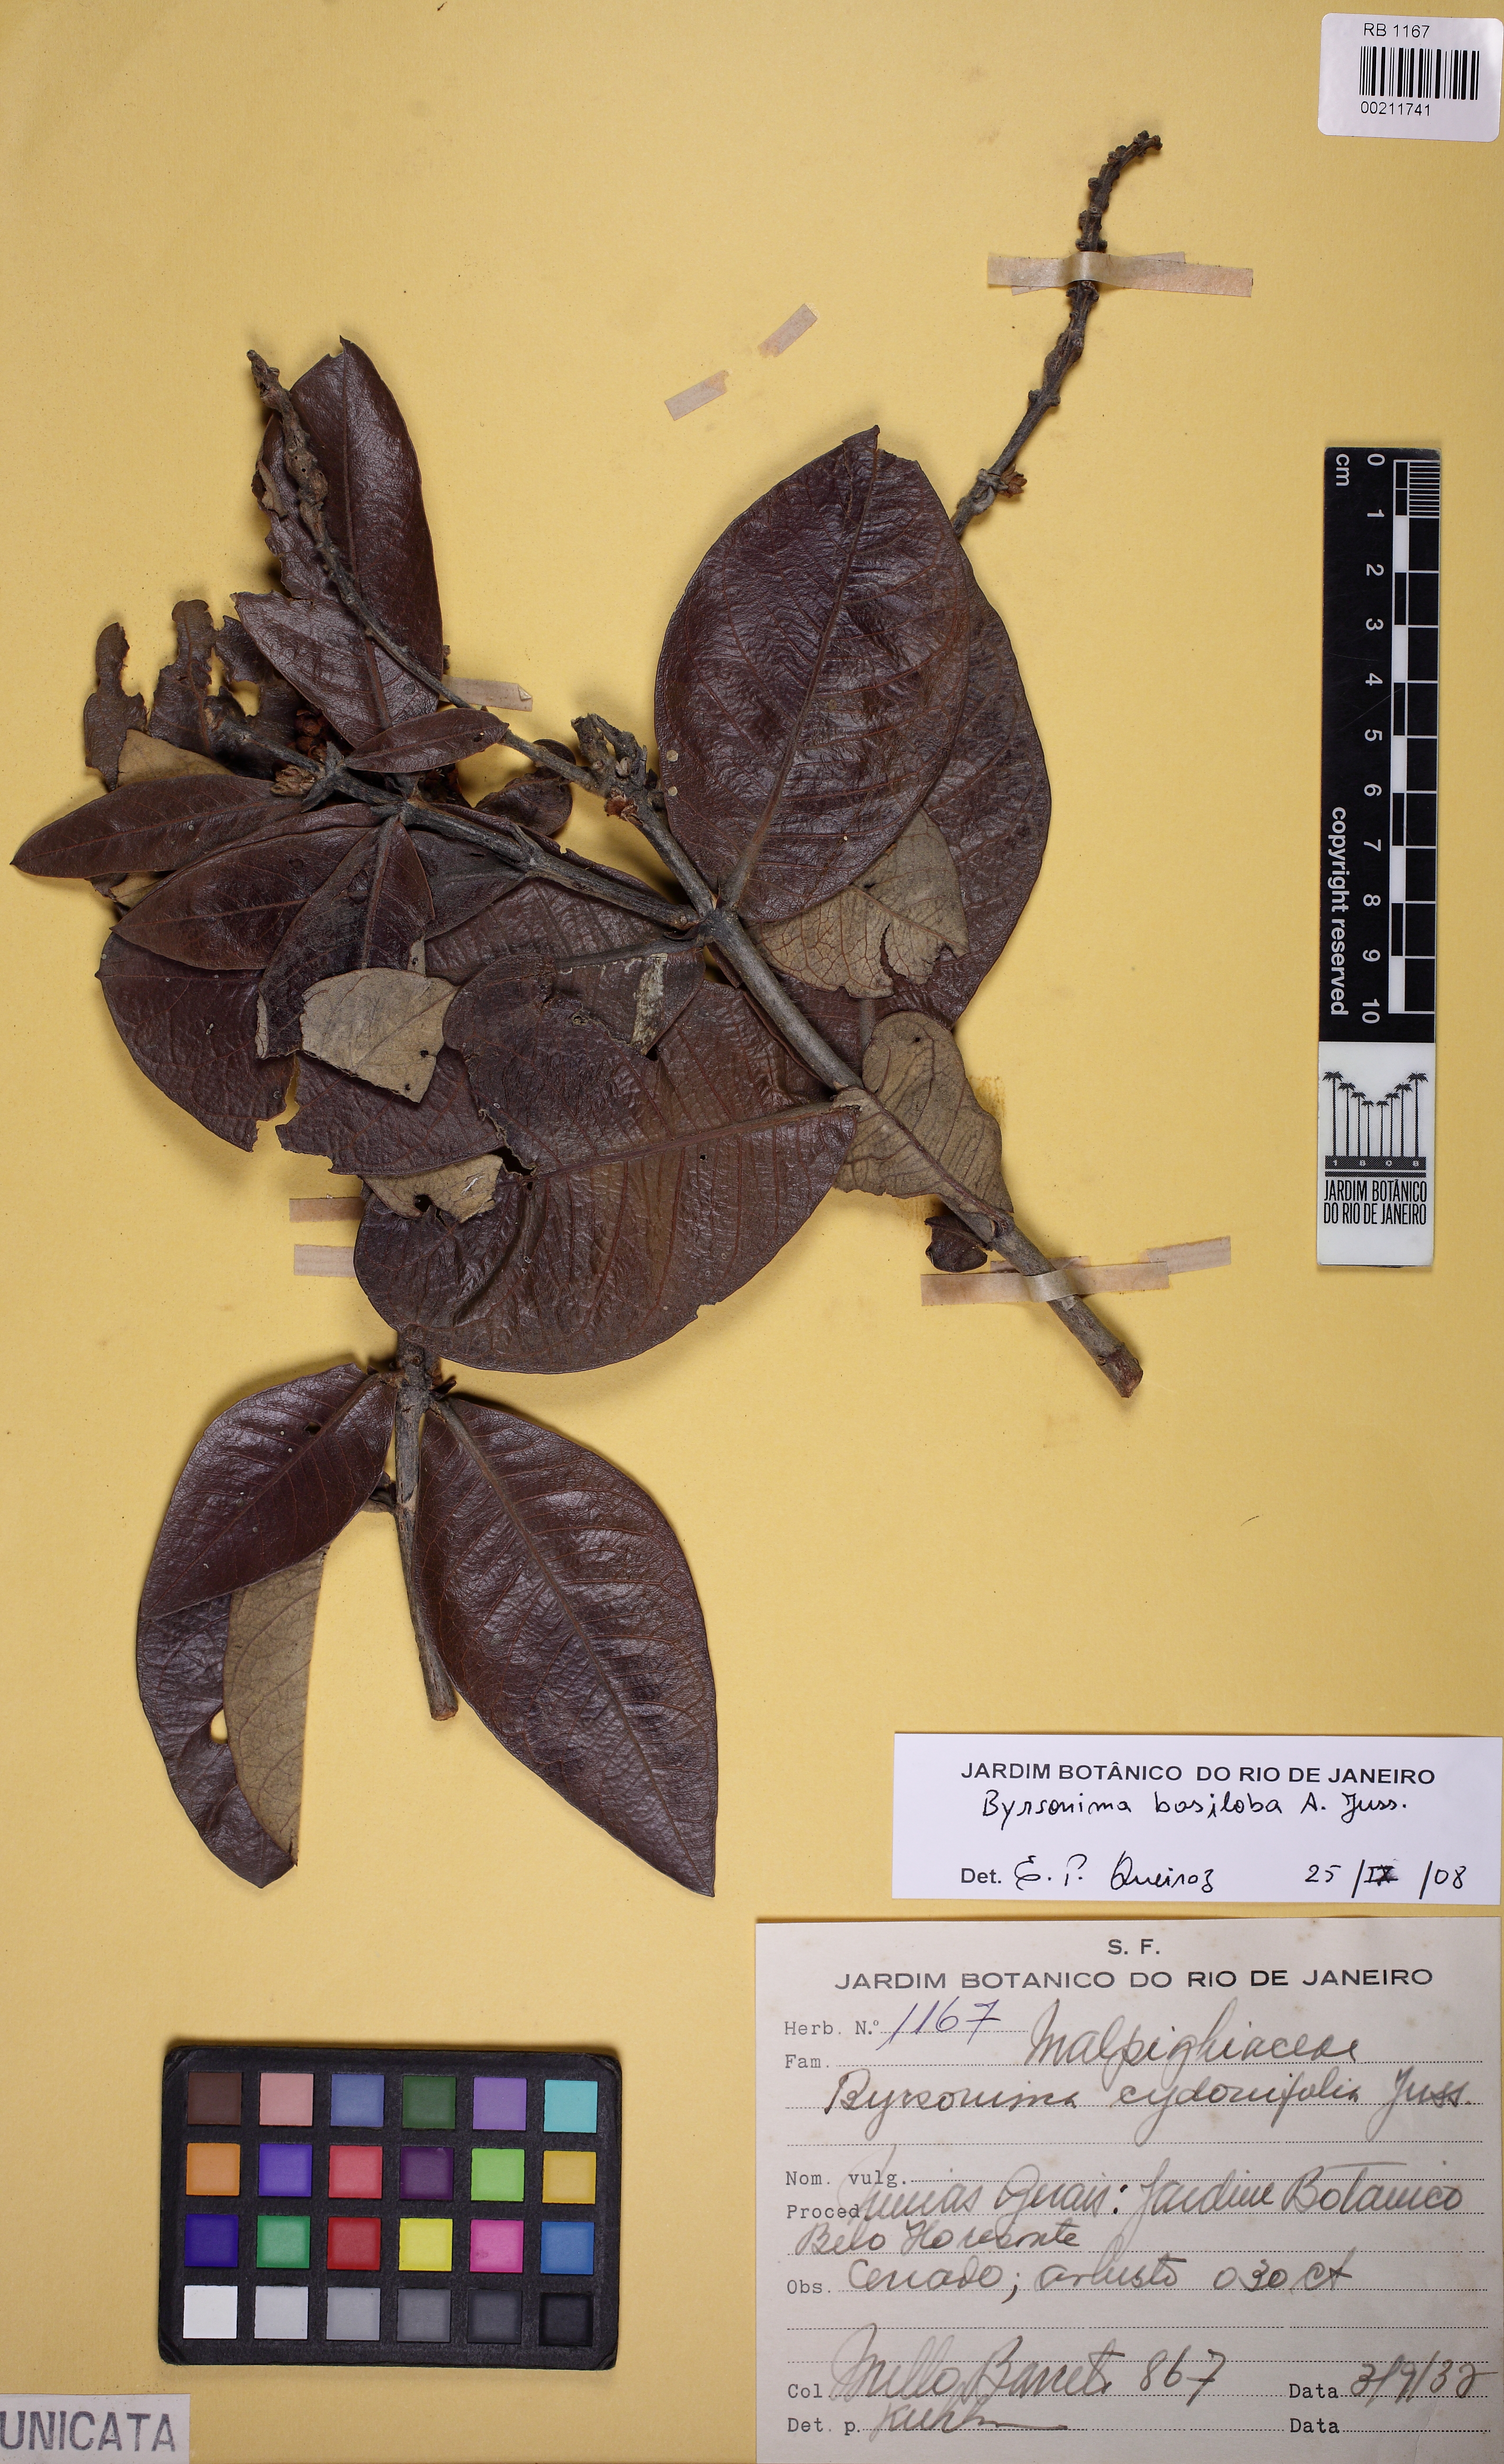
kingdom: Plantae
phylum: Tracheophyta
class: Magnoliopsida
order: Malpighiales
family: Malpighiaceae
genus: Byrsonima
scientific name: Byrsonima basiloba
